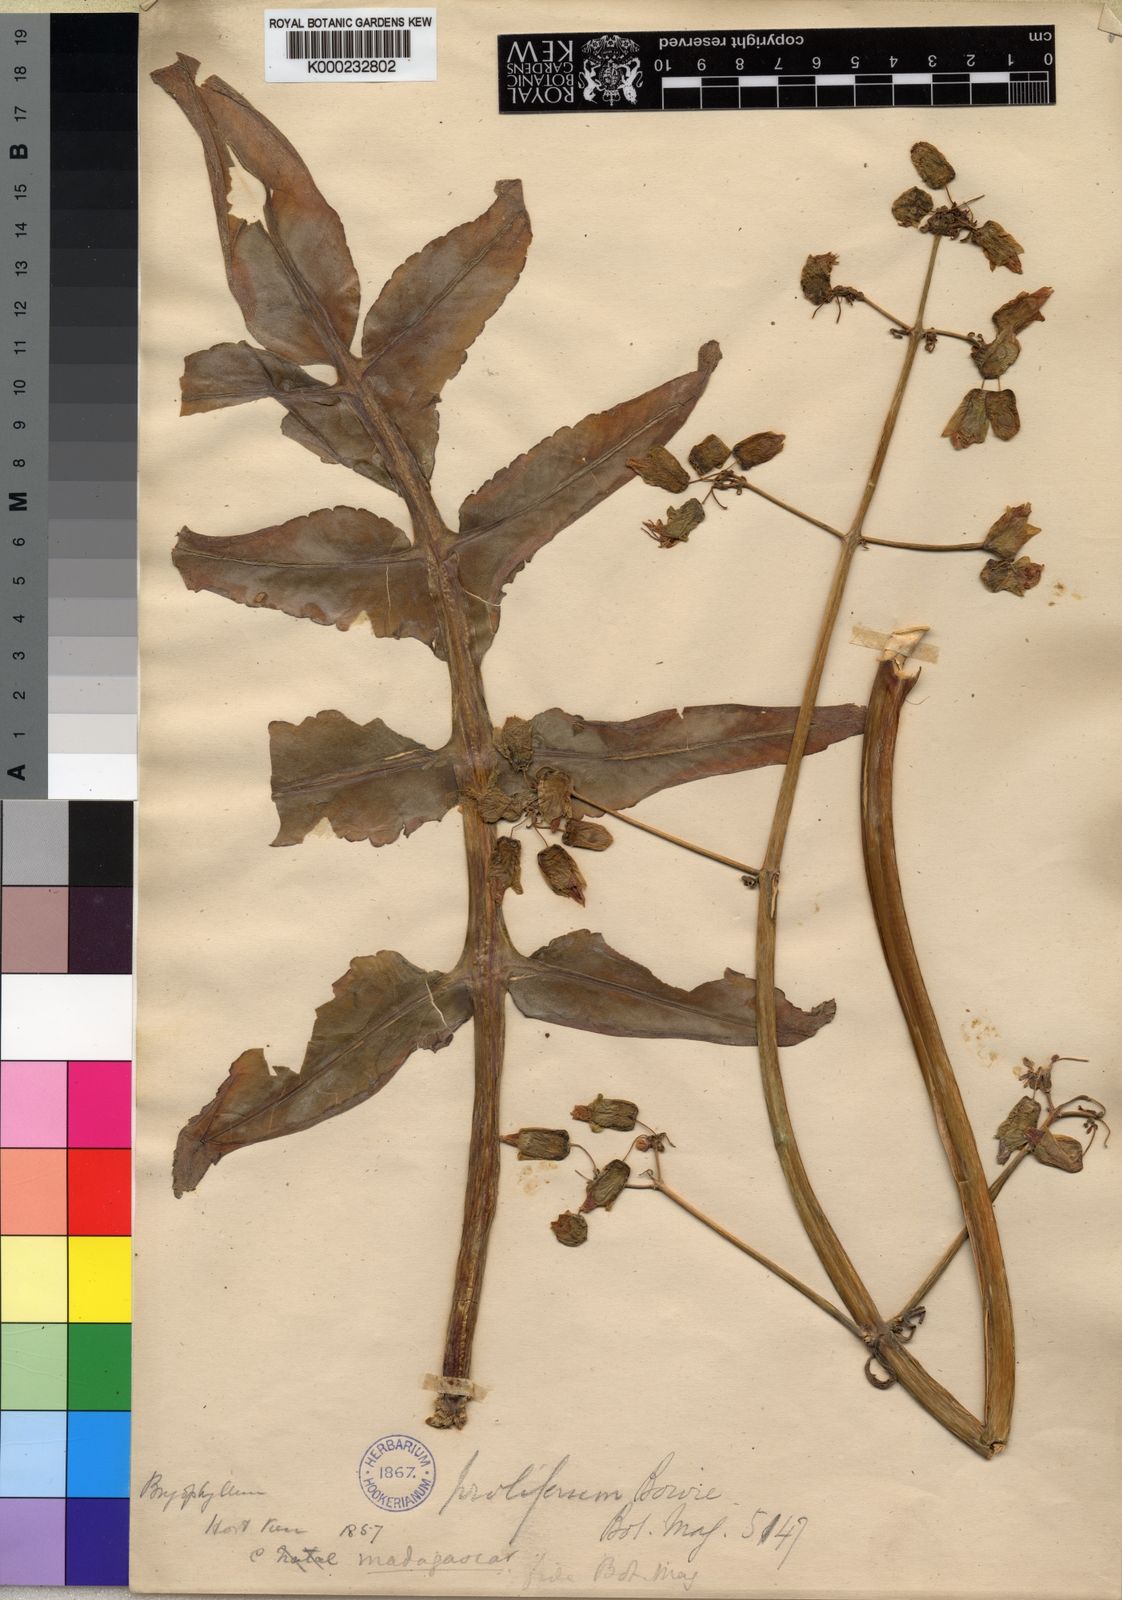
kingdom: Plantae
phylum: Tracheophyta
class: Magnoliopsida
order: Saxifragales
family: Crassulaceae
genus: Kalanchoe
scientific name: Kalanchoe prolifera
